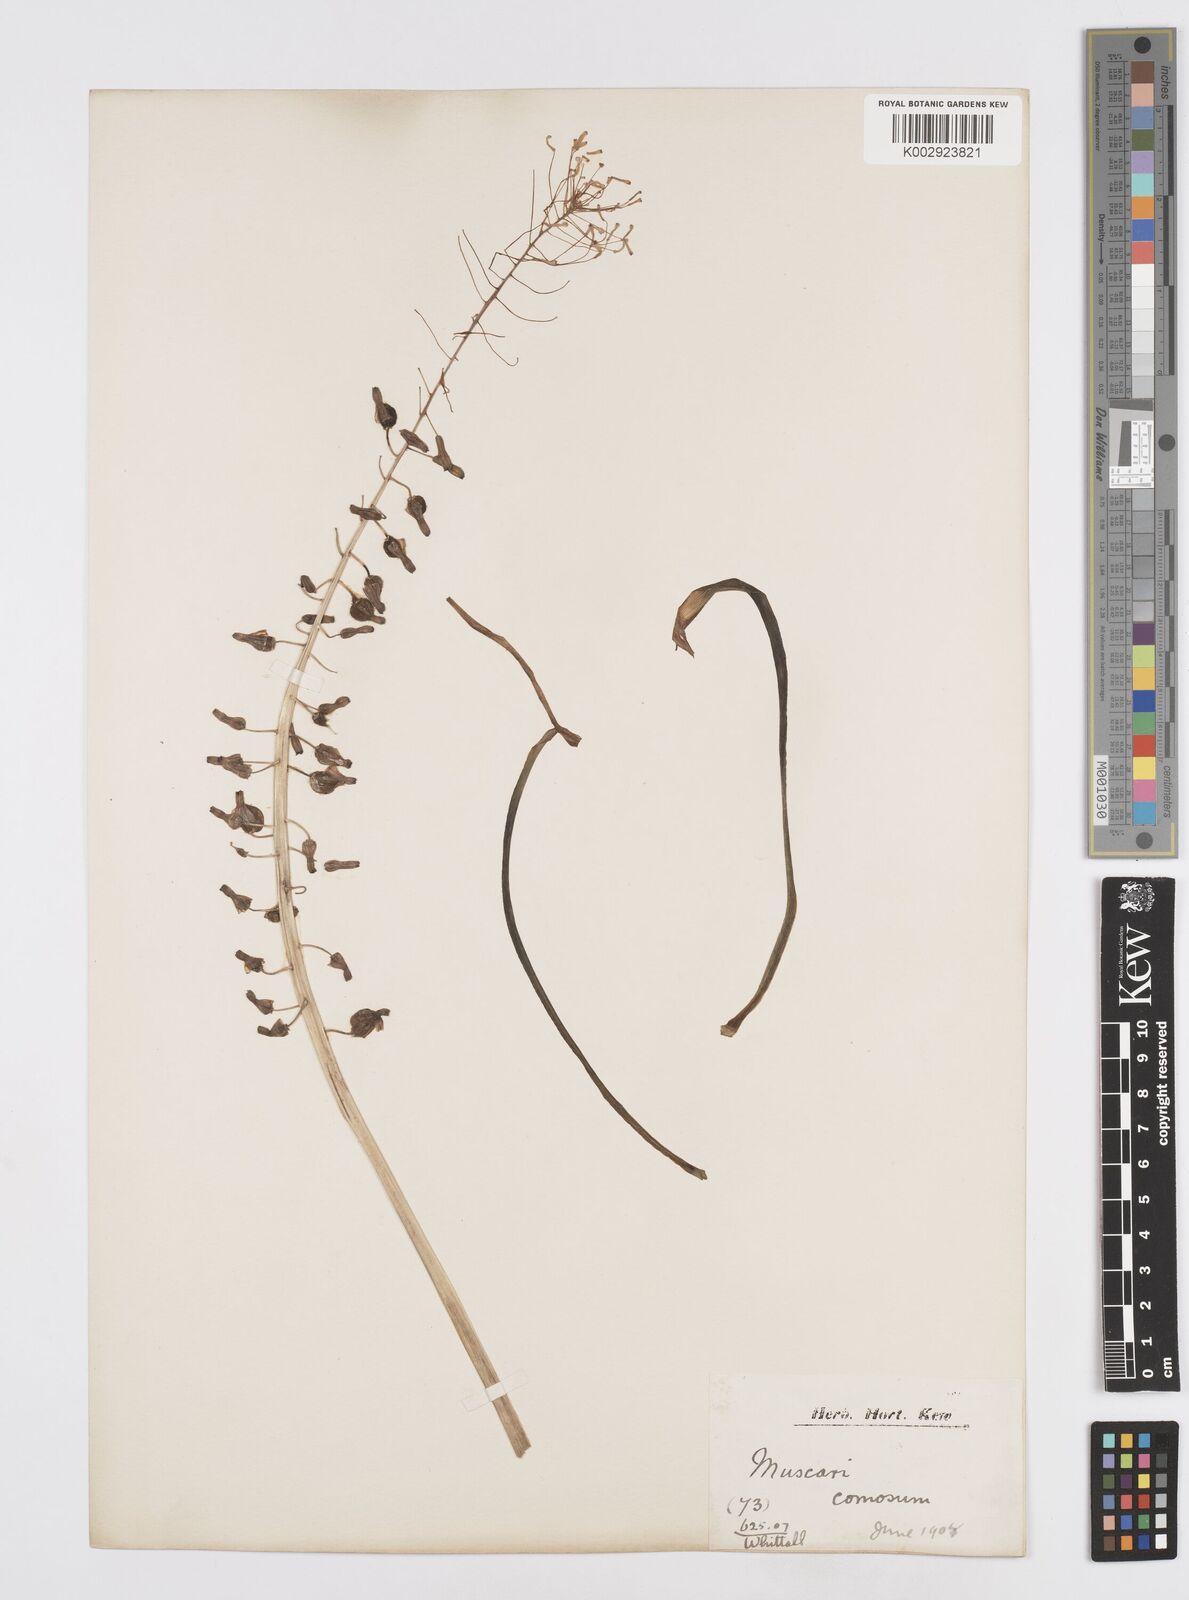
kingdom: Plantae
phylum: Tracheophyta
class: Liliopsida
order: Asparagales
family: Asparagaceae
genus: Muscari
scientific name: Muscari comosum
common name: Tassel hyacinth
